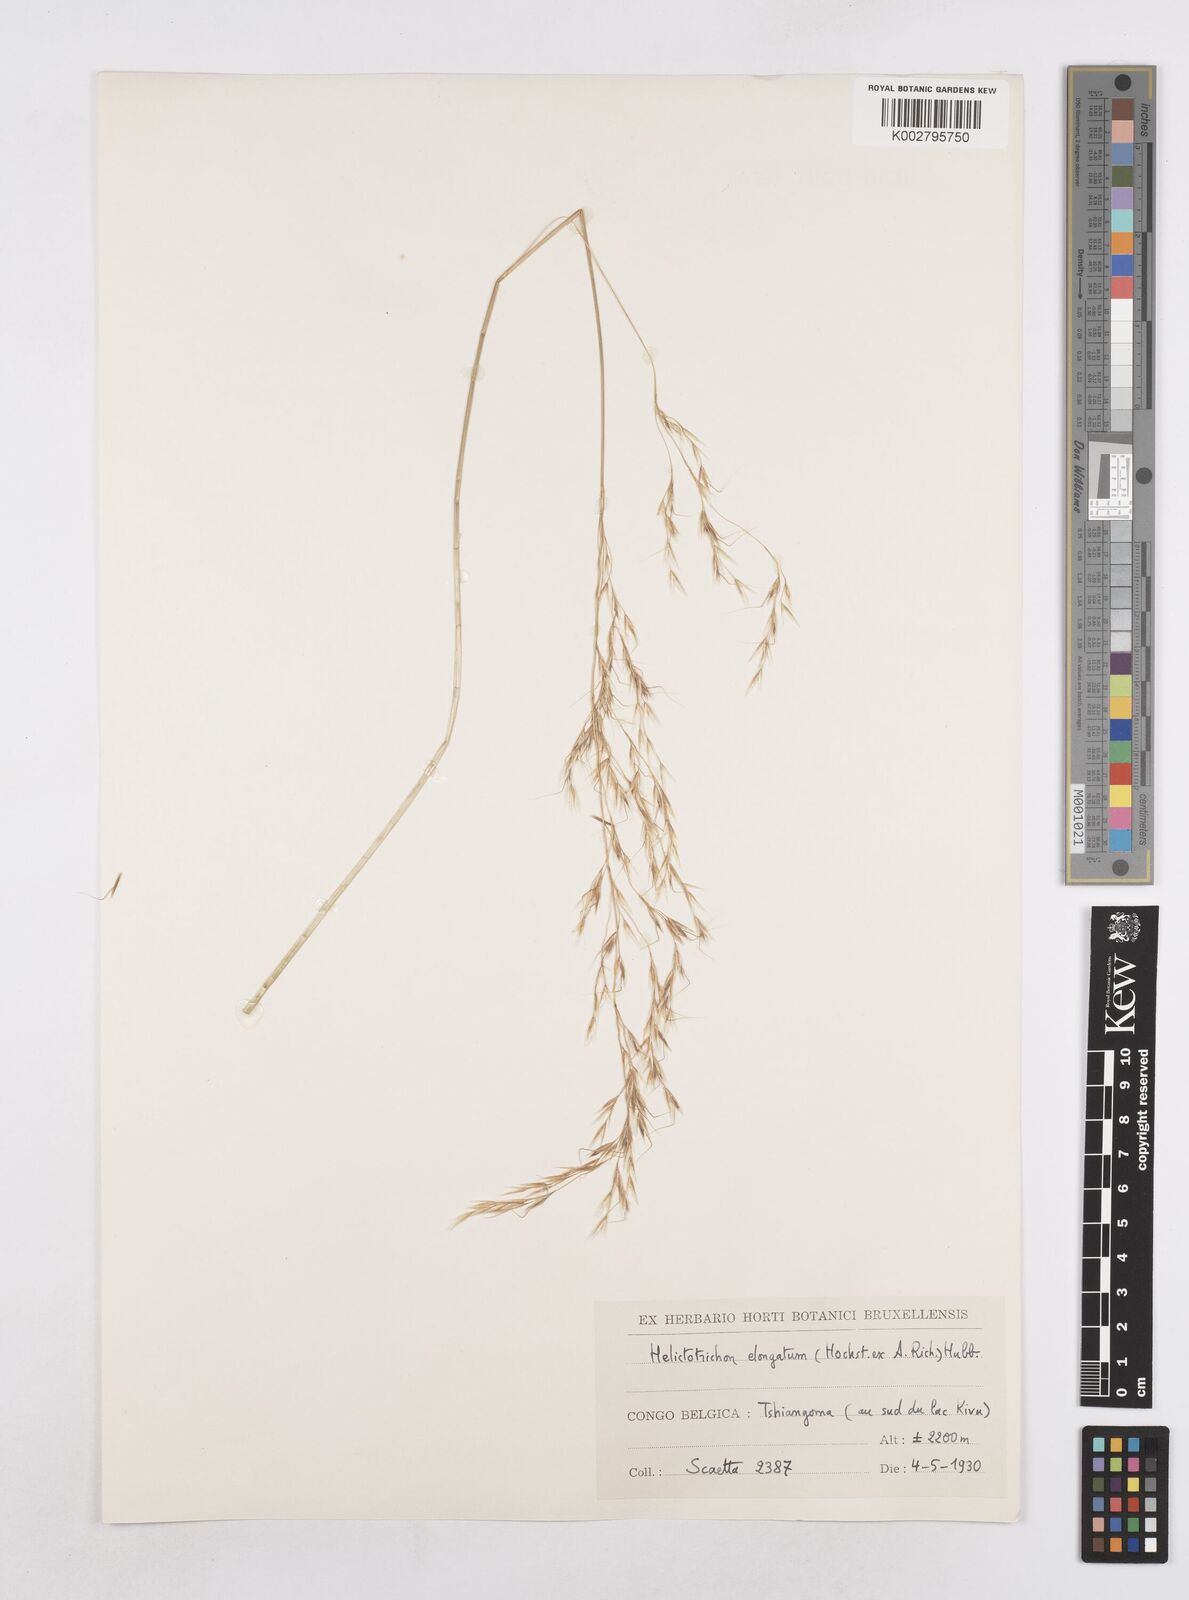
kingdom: Plantae
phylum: Tracheophyta
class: Liliopsida
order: Poales
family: Poaceae
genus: Trisetopsis
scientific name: Trisetopsis elongata
